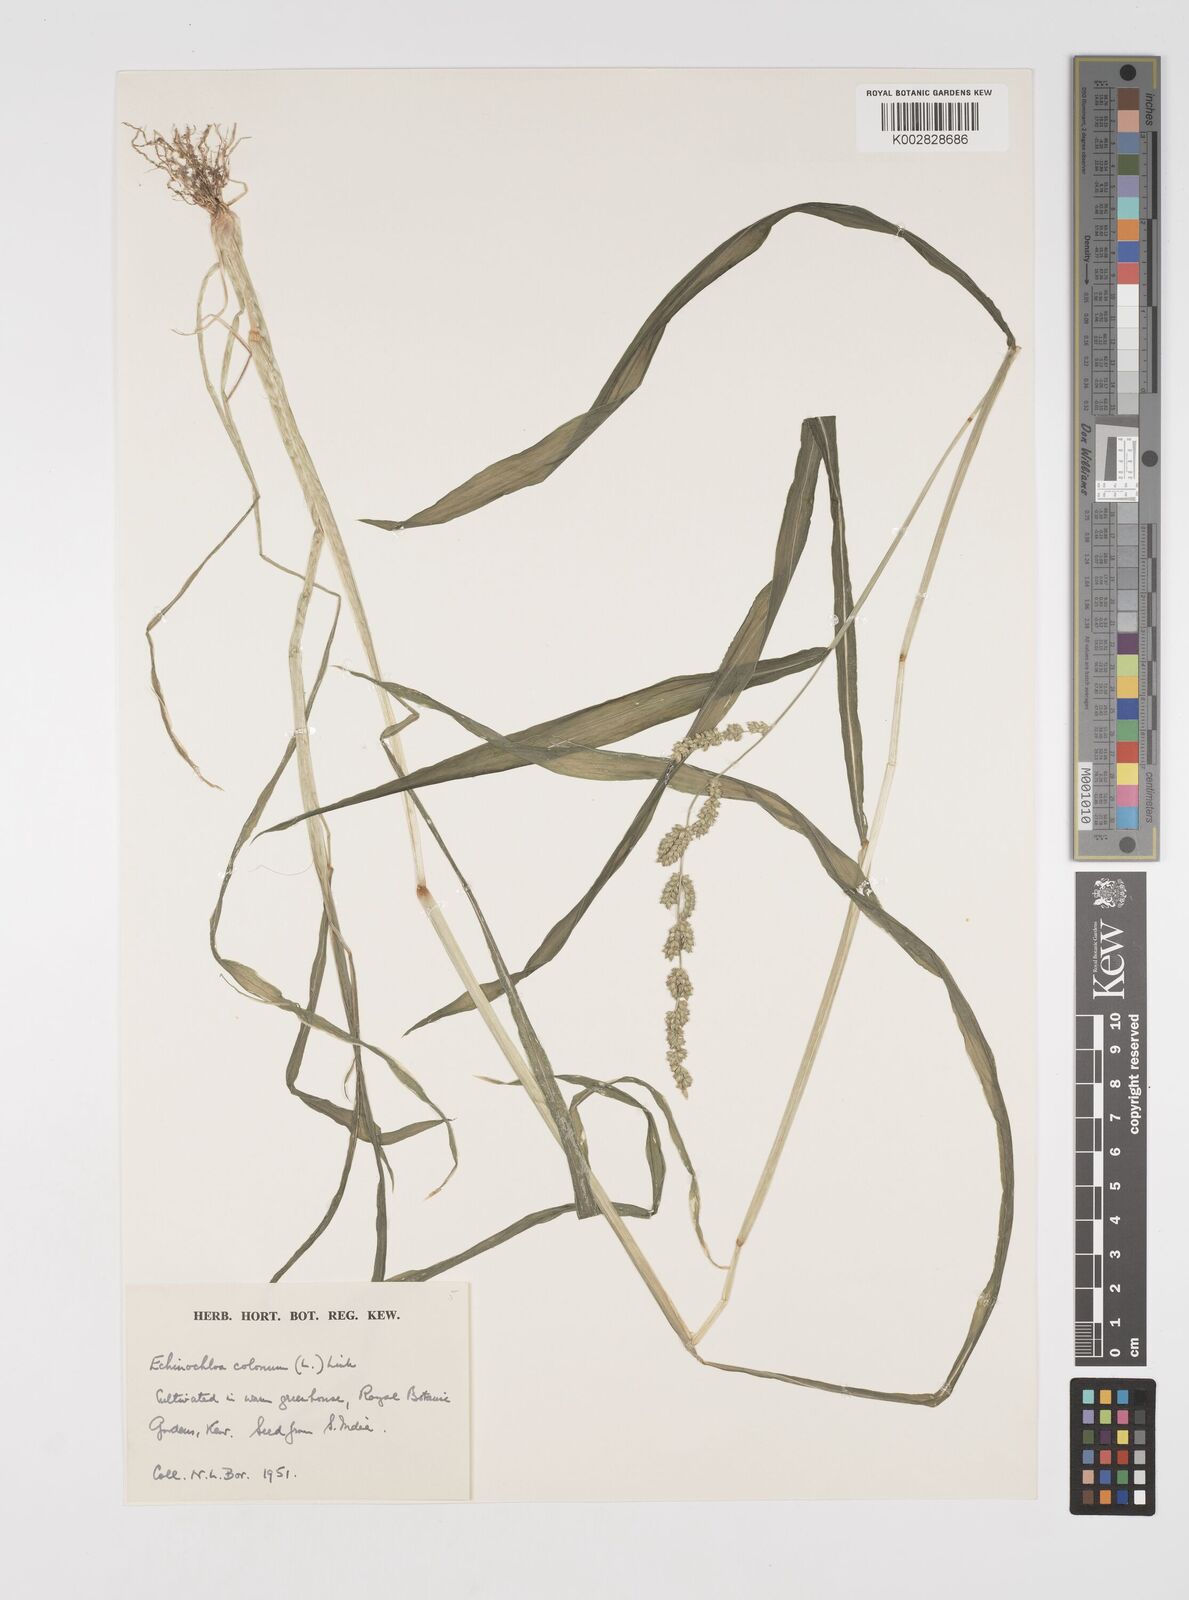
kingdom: Plantae
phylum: Tracheophyta
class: Liliopsida
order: Poales
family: Poaceae
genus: Echinochloa
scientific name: Echinochloa colonum
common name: Jungle rice
